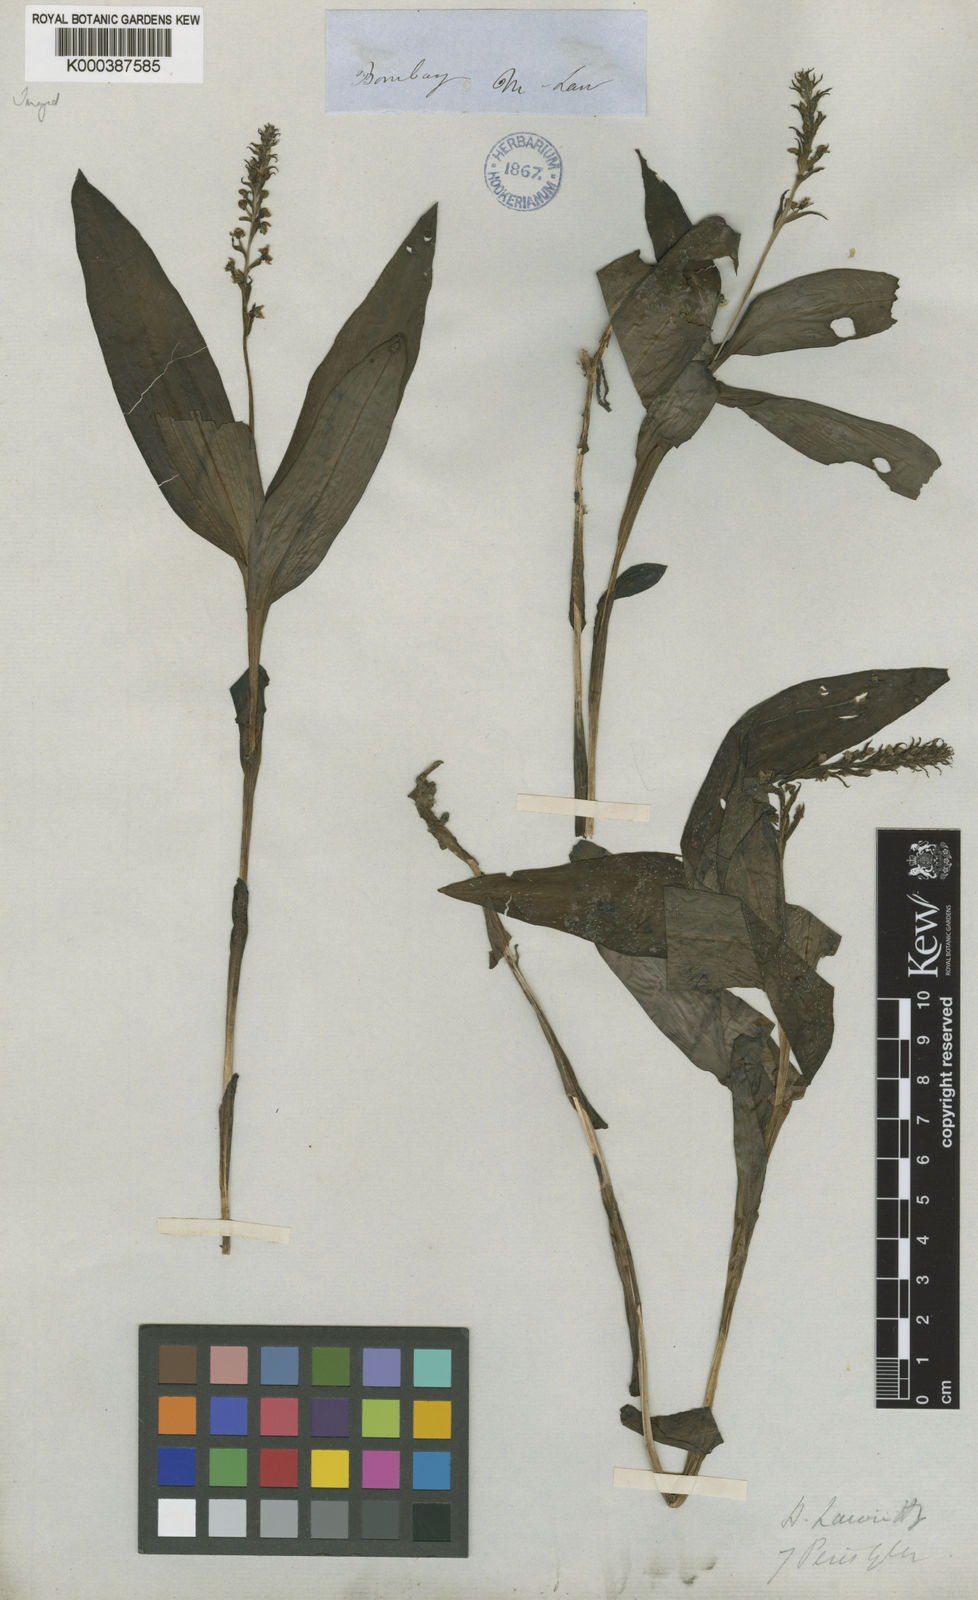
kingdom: Plantae
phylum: Tracheophyta
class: Liliopsida
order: Asparagales
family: Orchidaceae
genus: Peristylus
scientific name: Peristylus lawii
